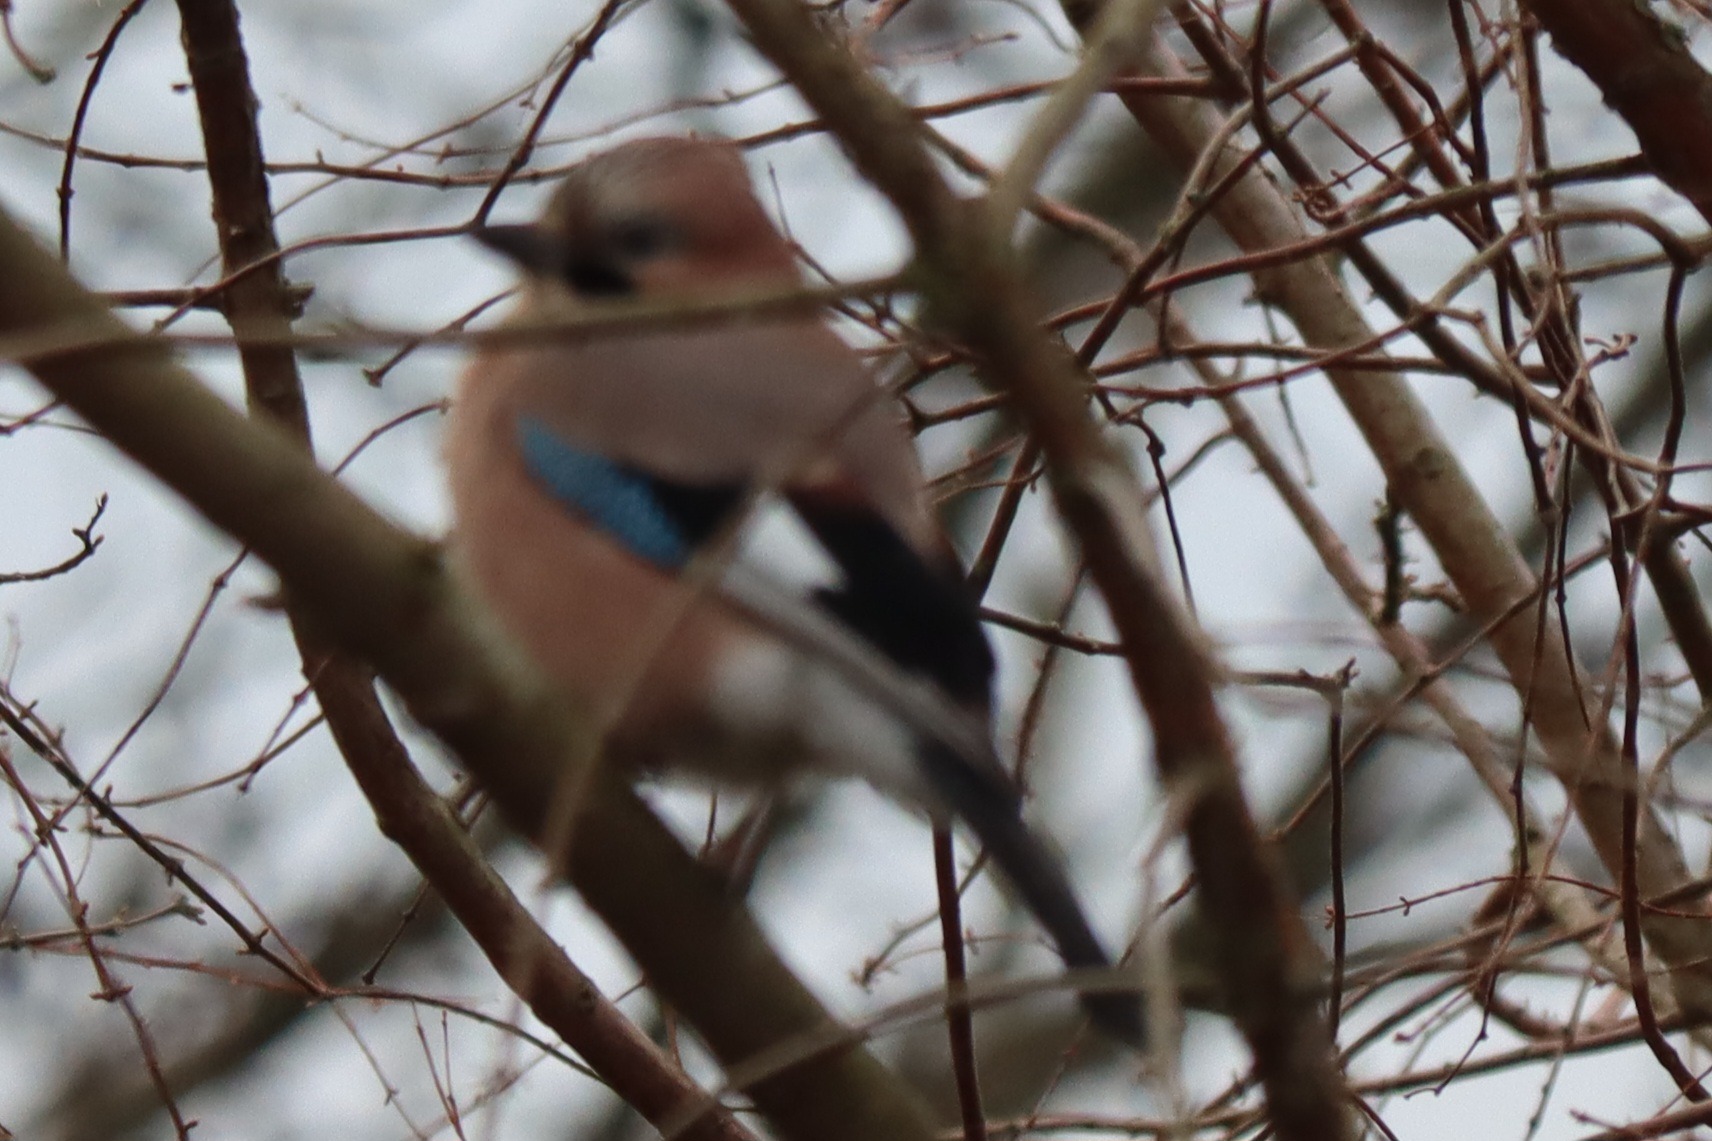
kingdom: Animalia
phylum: Chordata
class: Aves
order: Passeriformes
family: Corvidae
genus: Garrulus
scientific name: Garrulus glandarius
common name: Skovskade
